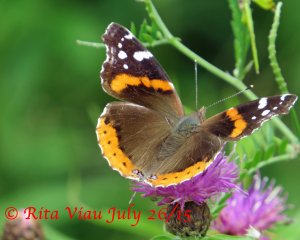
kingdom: Animalia
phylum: Arthropoda
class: Insecta
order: Lepidoptera
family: Nymphalidae
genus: Vanessa
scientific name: Vanessa atalanta
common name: Red Admiral
